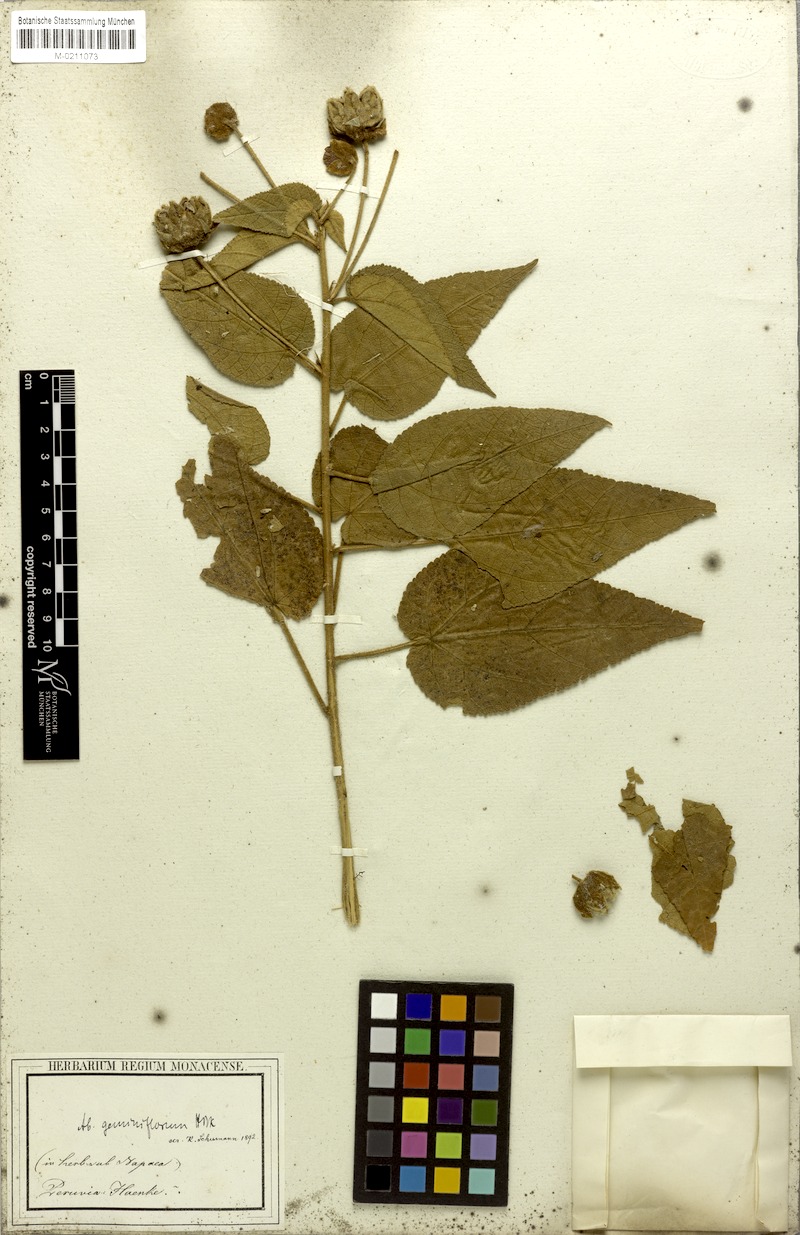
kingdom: Plantae
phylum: Tracheophyta
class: Magnoliopsida
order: Malvales
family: Malvaceae
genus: Callianthe
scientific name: Callianthe geminiflora
